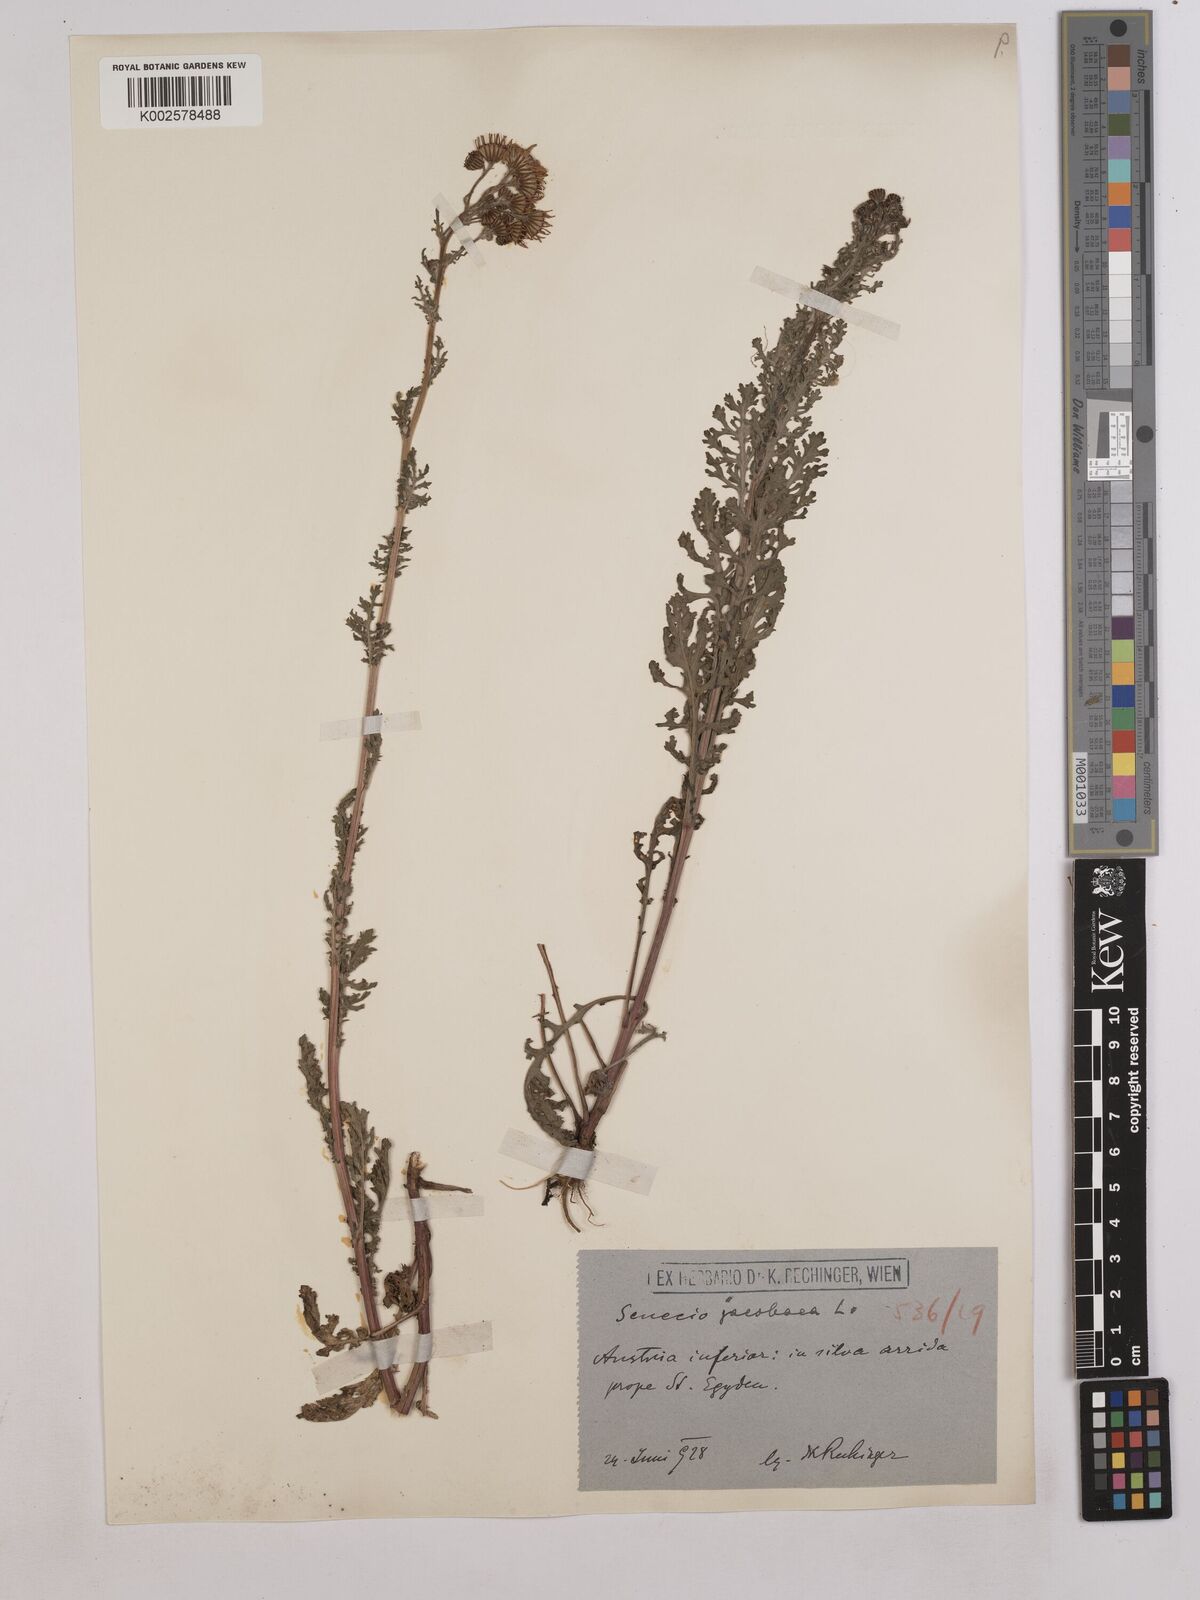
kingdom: Plantae
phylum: Tracheophyta
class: Magnoliopsida
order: Asterales
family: Asteraceae
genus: Jacobaea
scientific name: Jacobaea vulgaris
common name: Stinking willie
